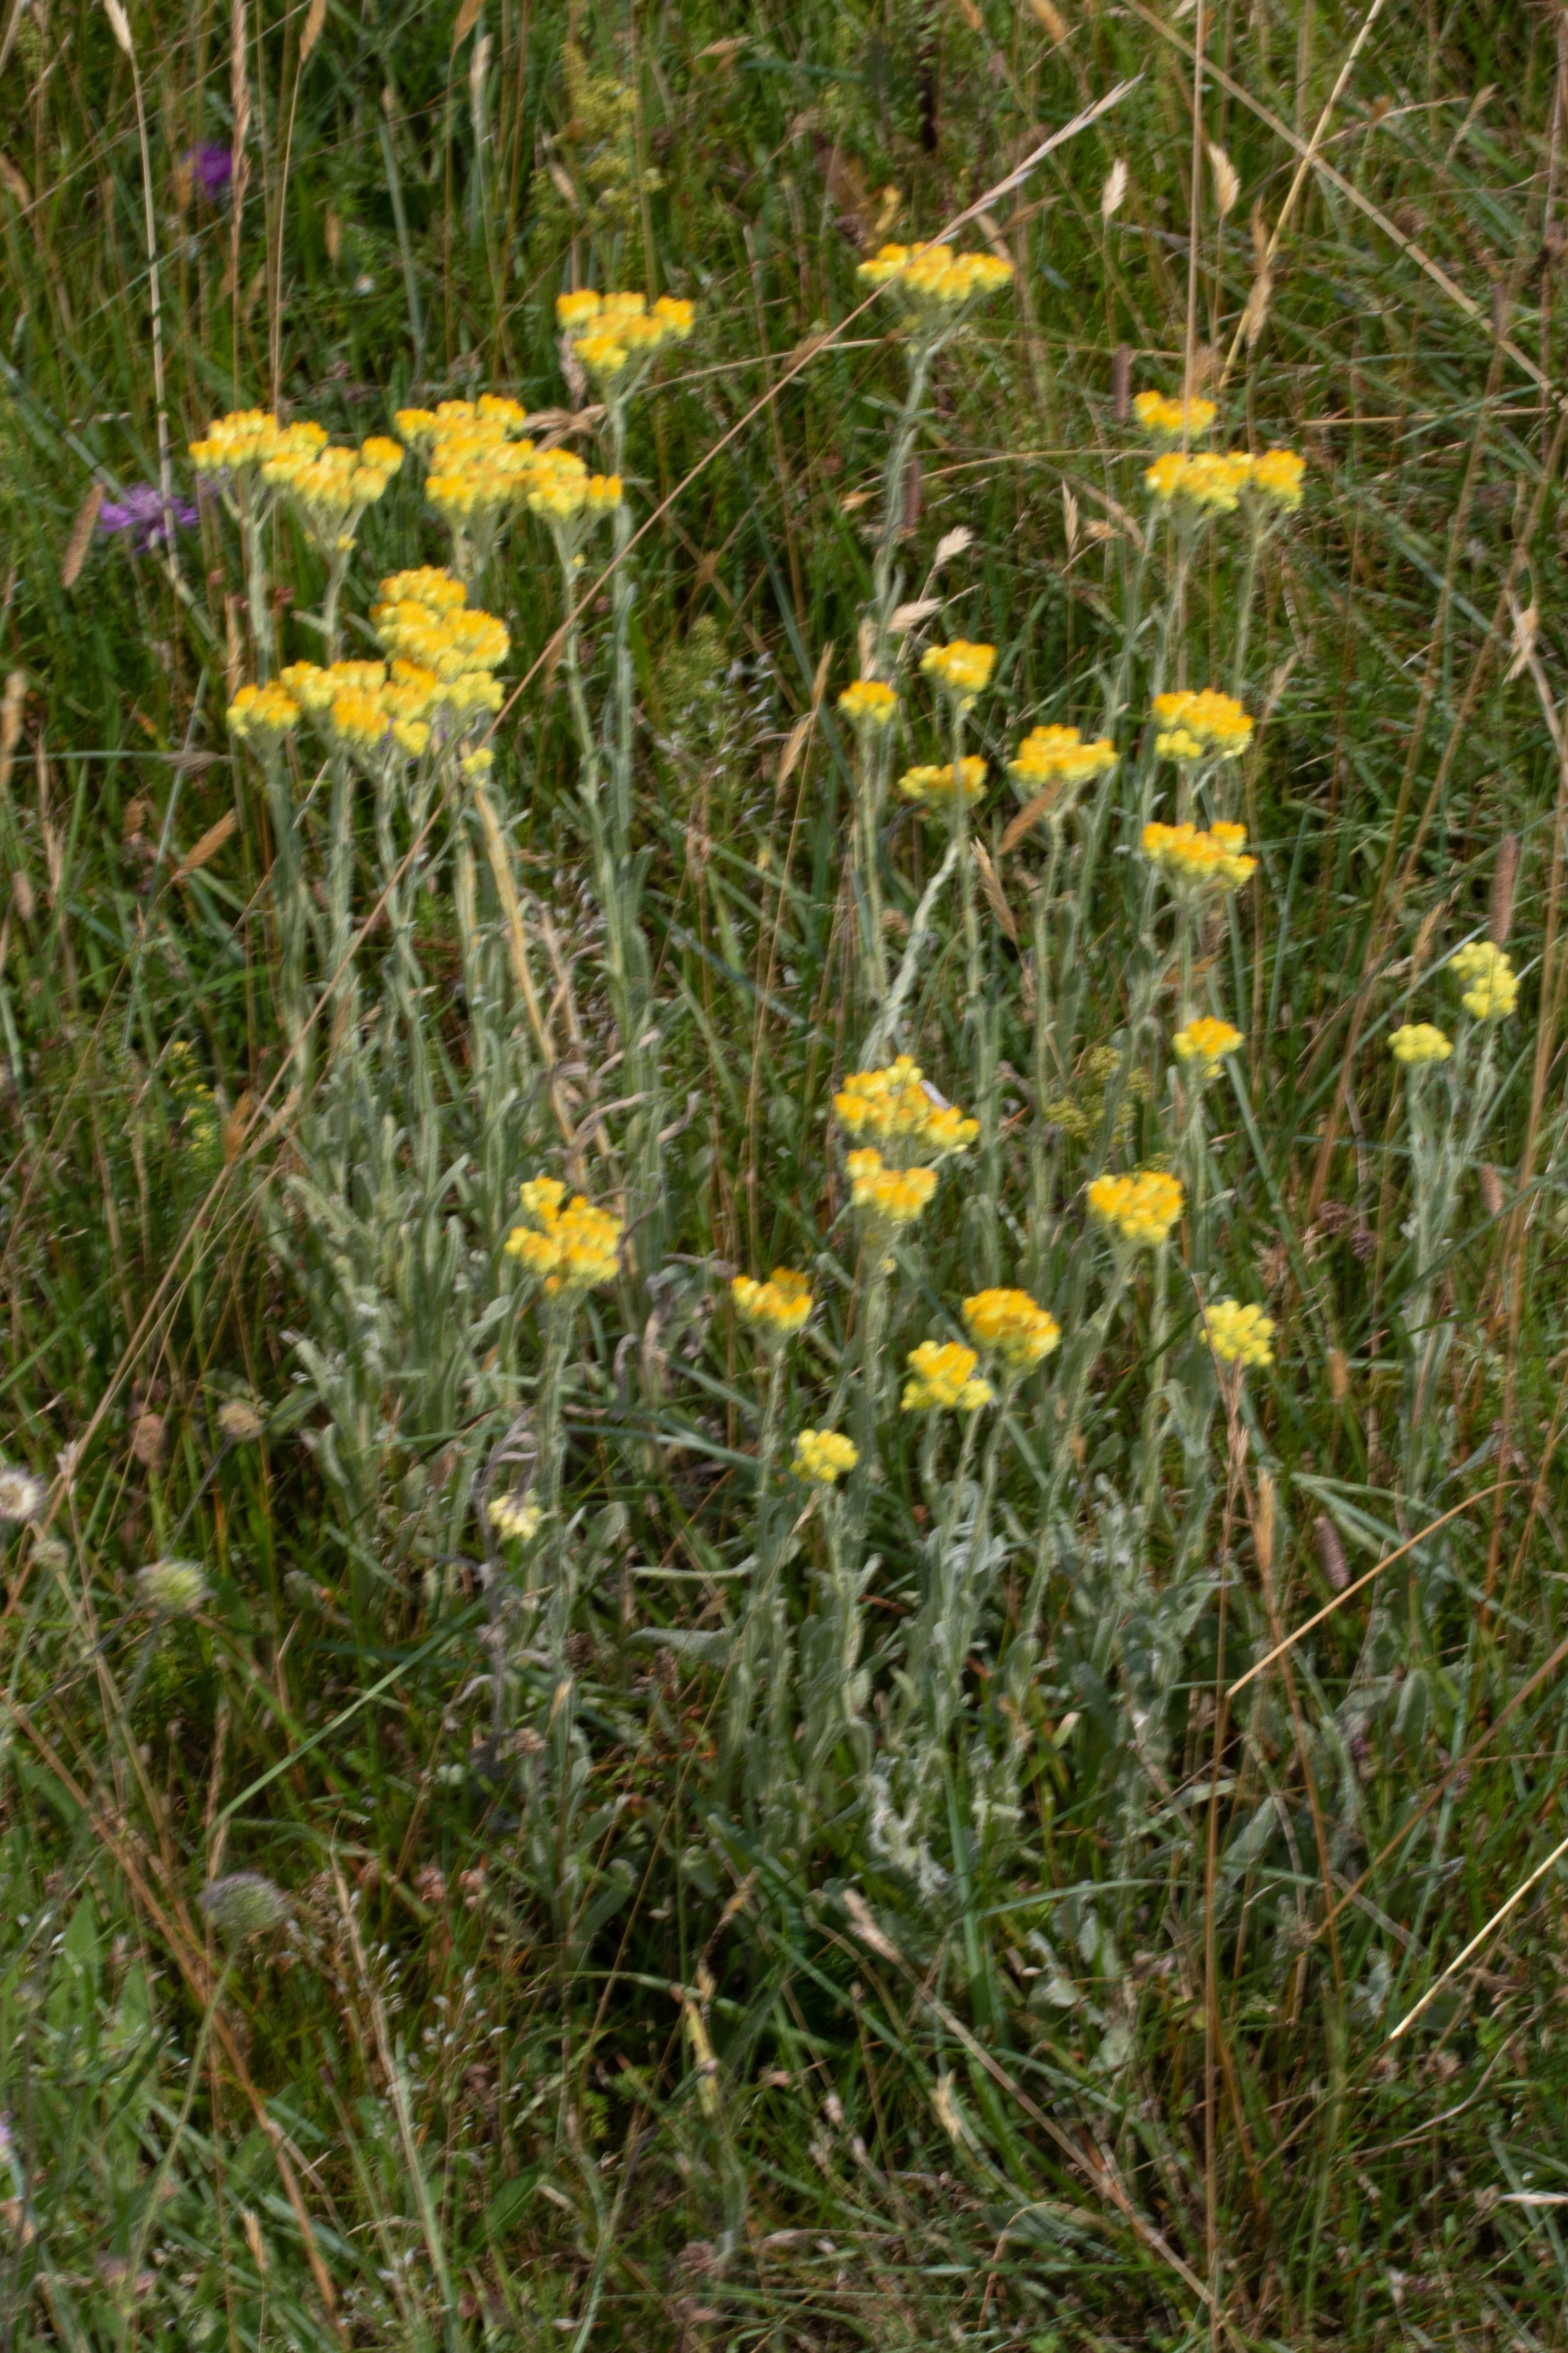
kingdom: Plantae
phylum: Tracheophyta
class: Magnoliopsida
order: Asterales
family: Asteraceae
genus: Helichrysum
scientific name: Helichrysum arenarium
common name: Gul evighedsblomst
